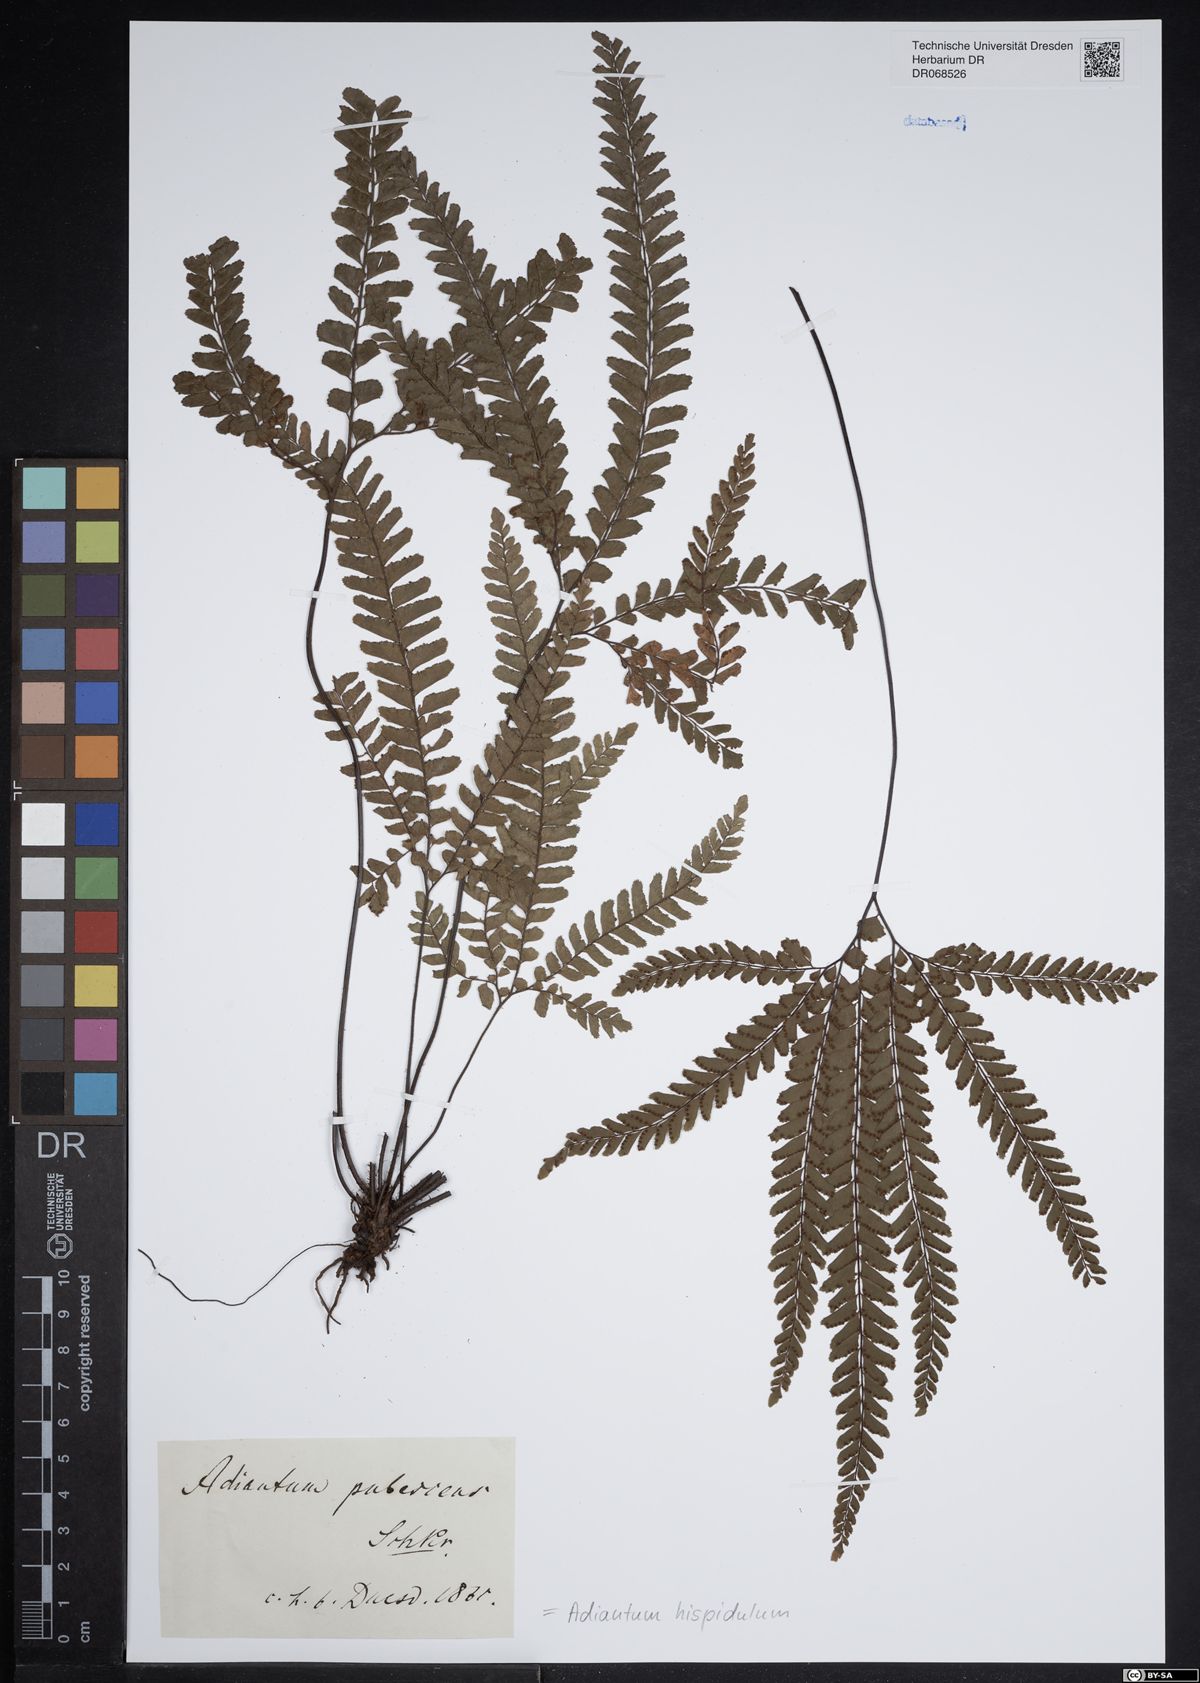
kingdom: Plantae
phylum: Tracheophyta
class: Polypodiopsida
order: Polypodiales
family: Pteridaceae
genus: Adiantum
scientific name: Adiantum hispidulum
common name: Rough maidenhair
